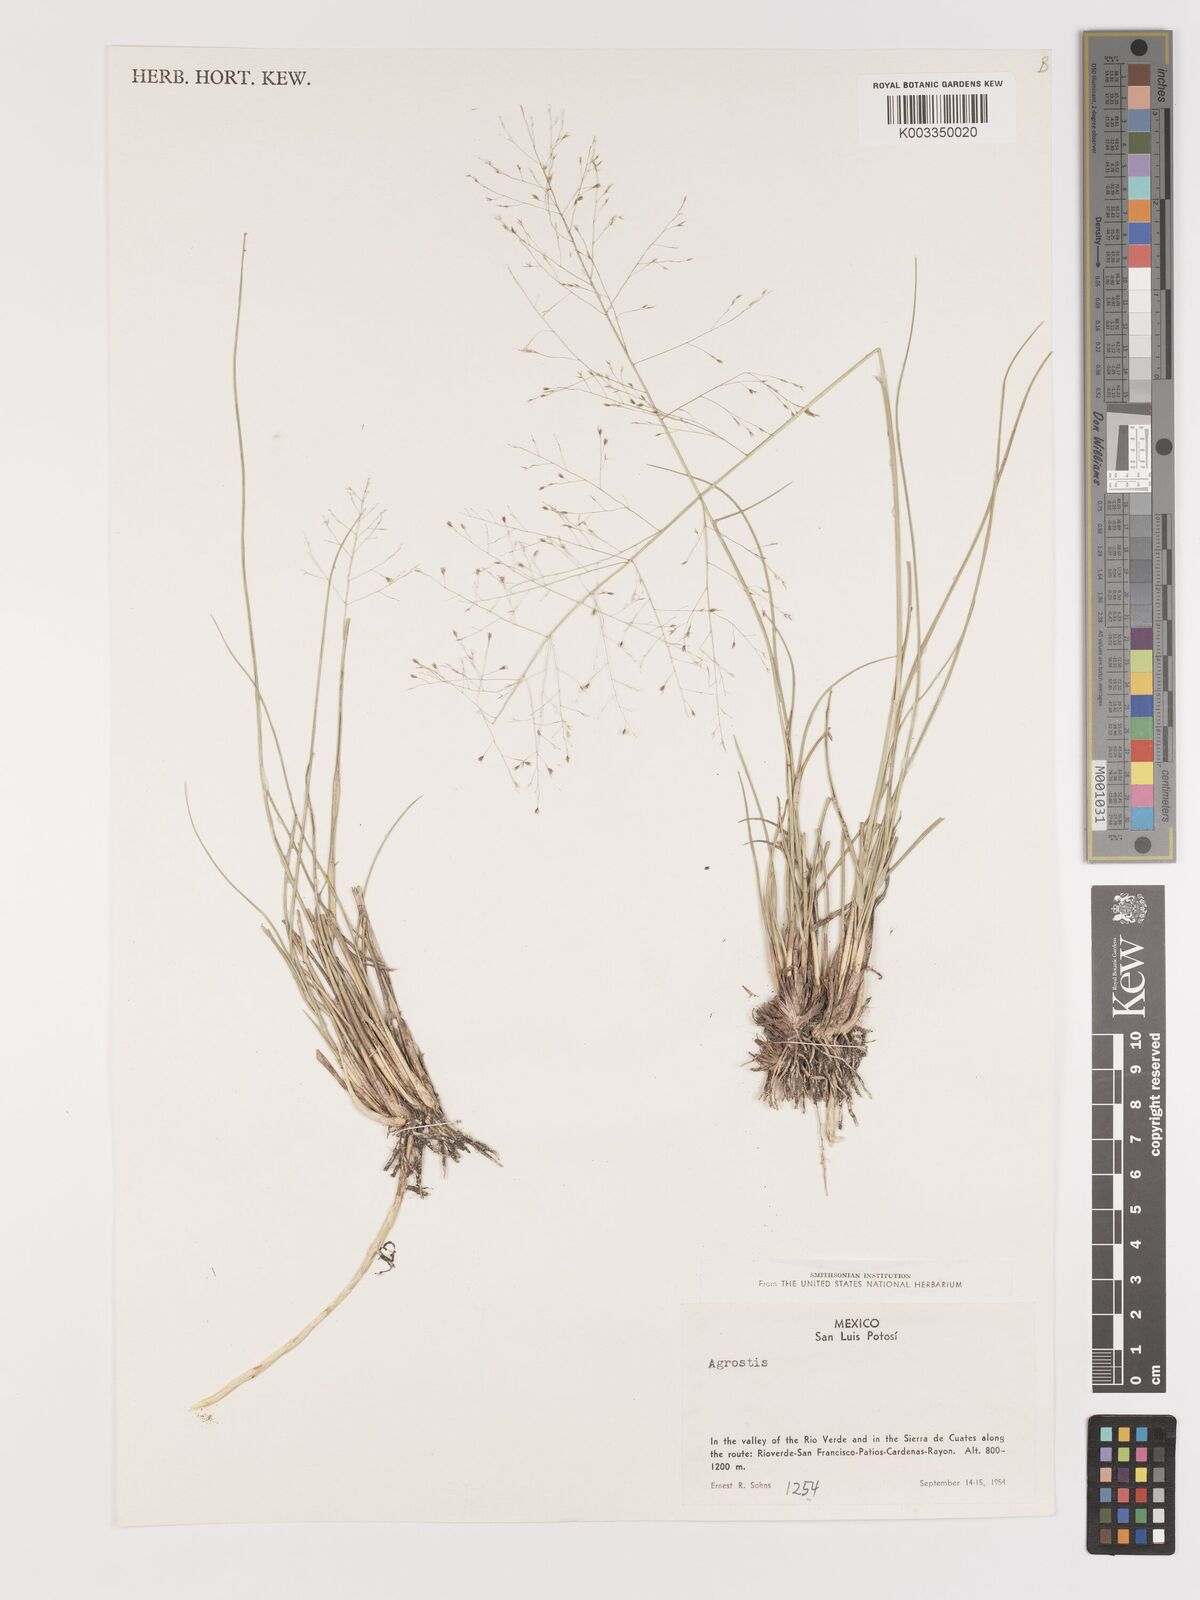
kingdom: Plantae
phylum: Tracheophyta
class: Liliopsida
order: Poales
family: Poaceae
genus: Agrostis
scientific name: Agrostis
